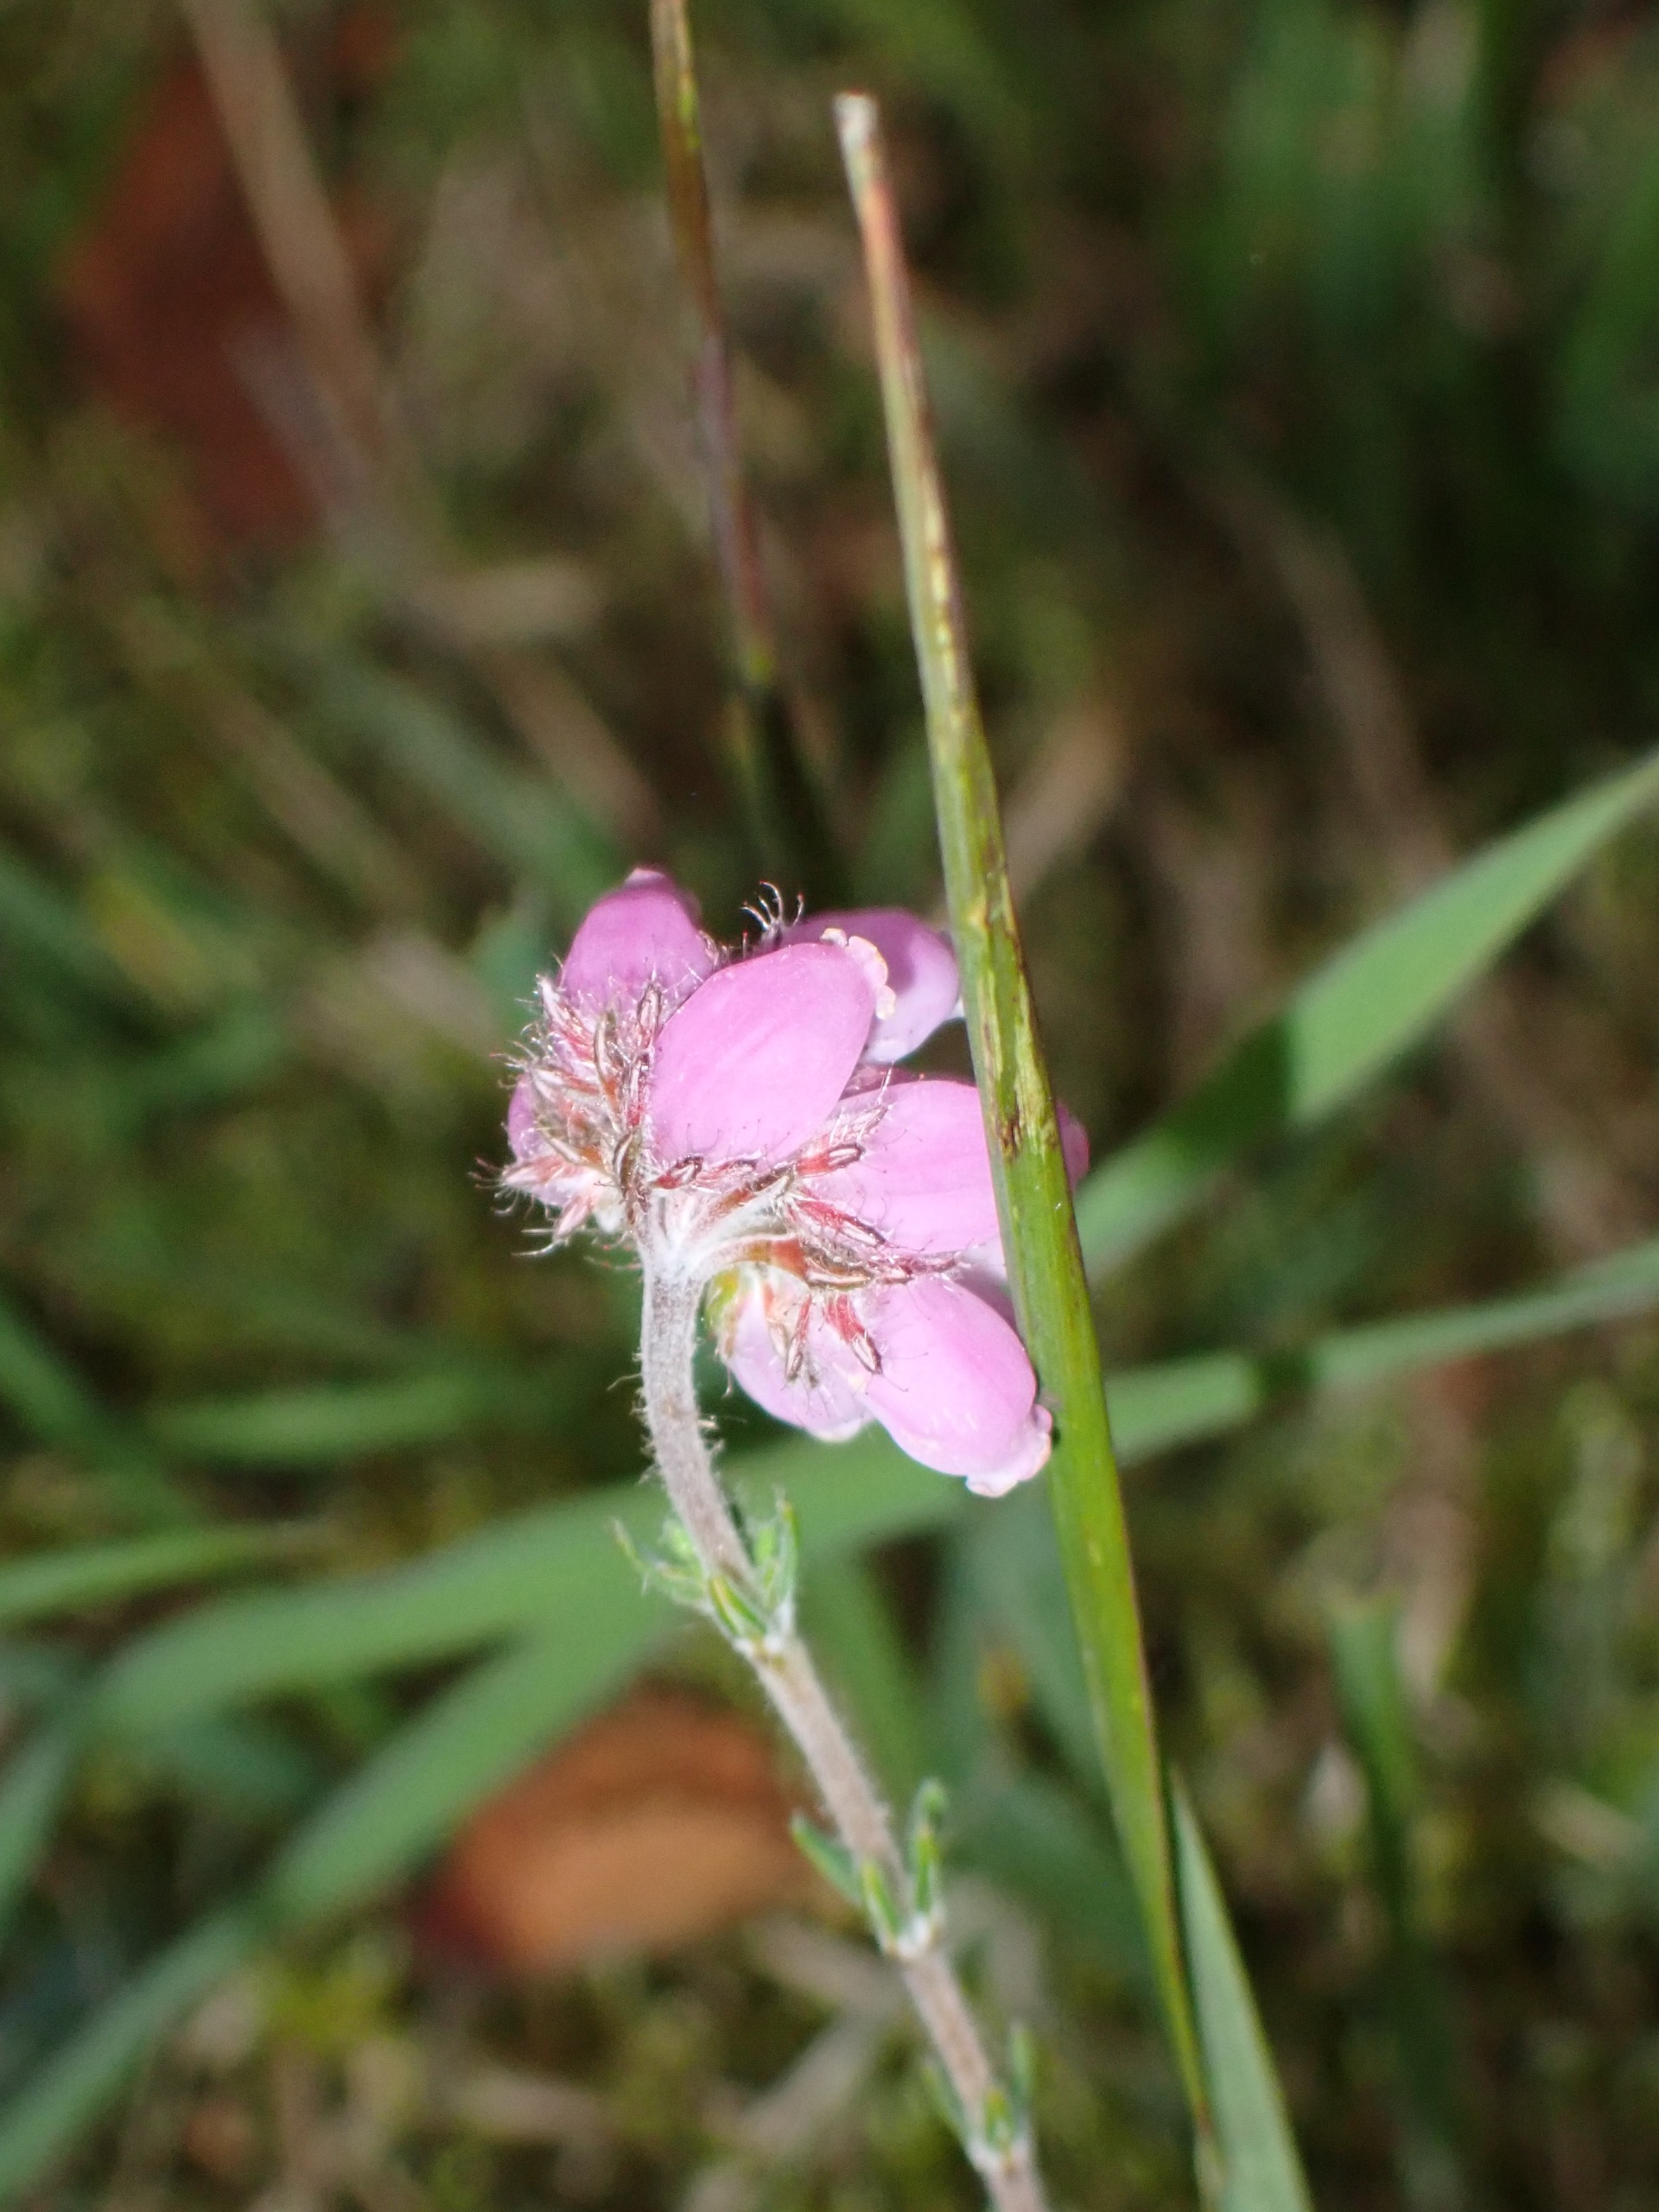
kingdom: Plantae
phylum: Tracheophyta
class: Magnoliopsida
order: Ericales
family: Ericaceae
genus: Erica
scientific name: Erica tetralix
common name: Klokkelyng
